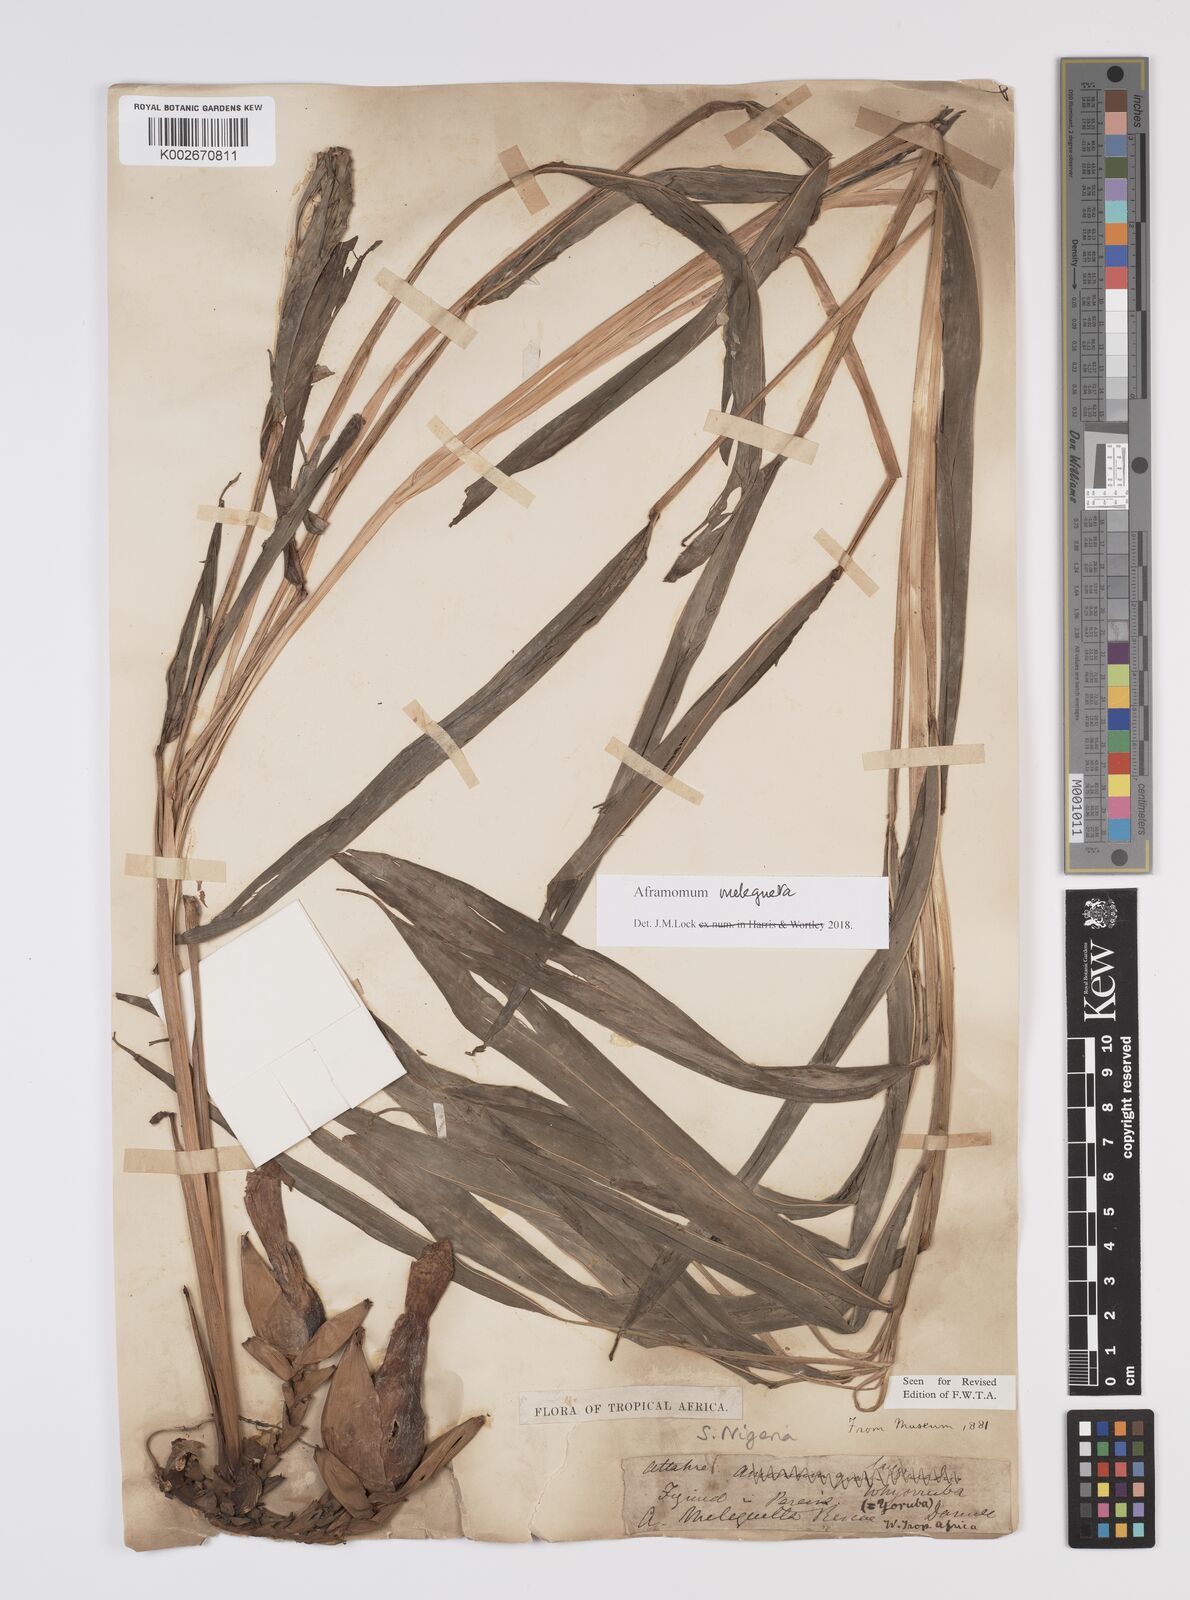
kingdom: Plantae
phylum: Tracheophyta
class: Liliopsida
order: Zingiberales
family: Zingiberaceae
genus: Aframomum
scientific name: Aframomum melegueta
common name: Grains of paradise
